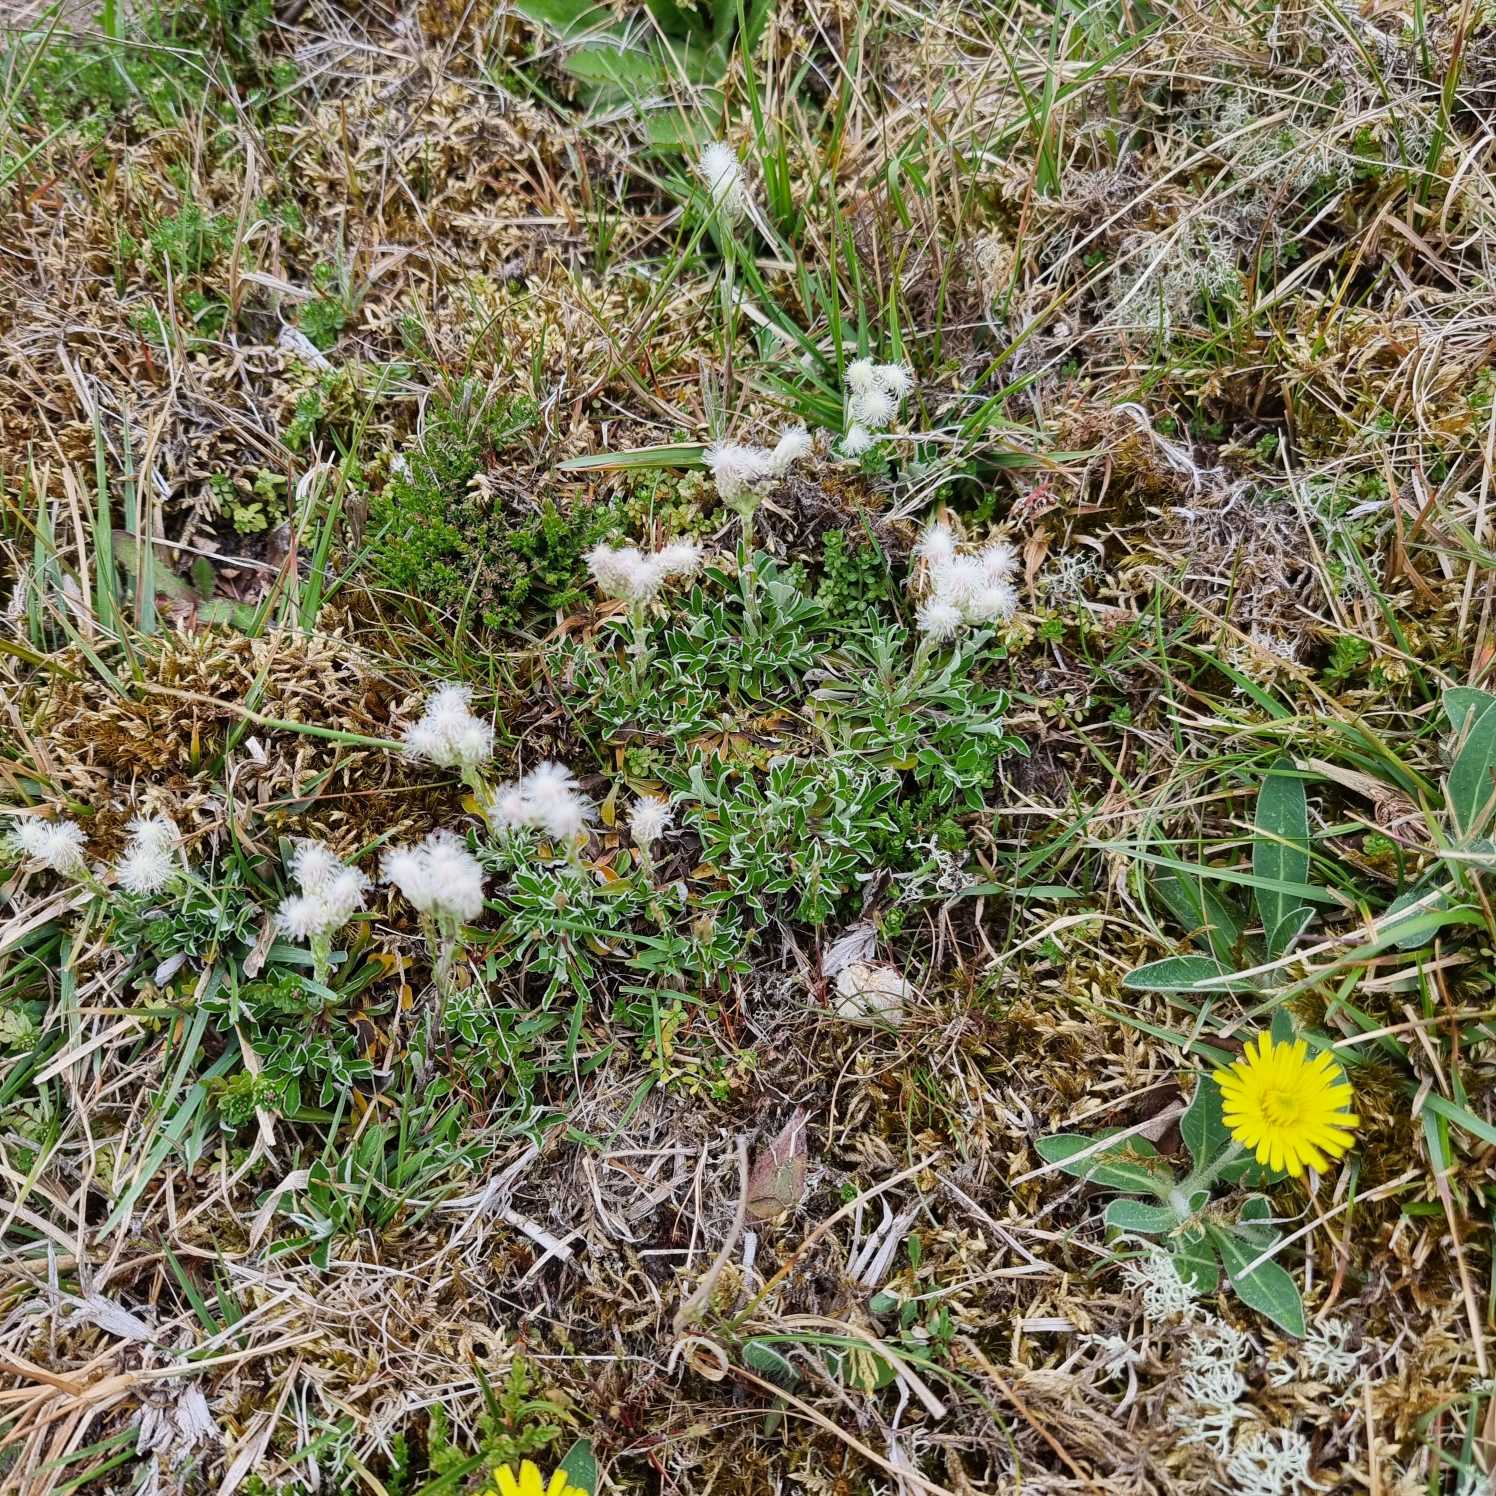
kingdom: Plantae
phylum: Tracheophyta
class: Magnoliopsida
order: Asterales
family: Asteraceae
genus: Antennaria
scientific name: Antennaria dioica
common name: Kattefod
